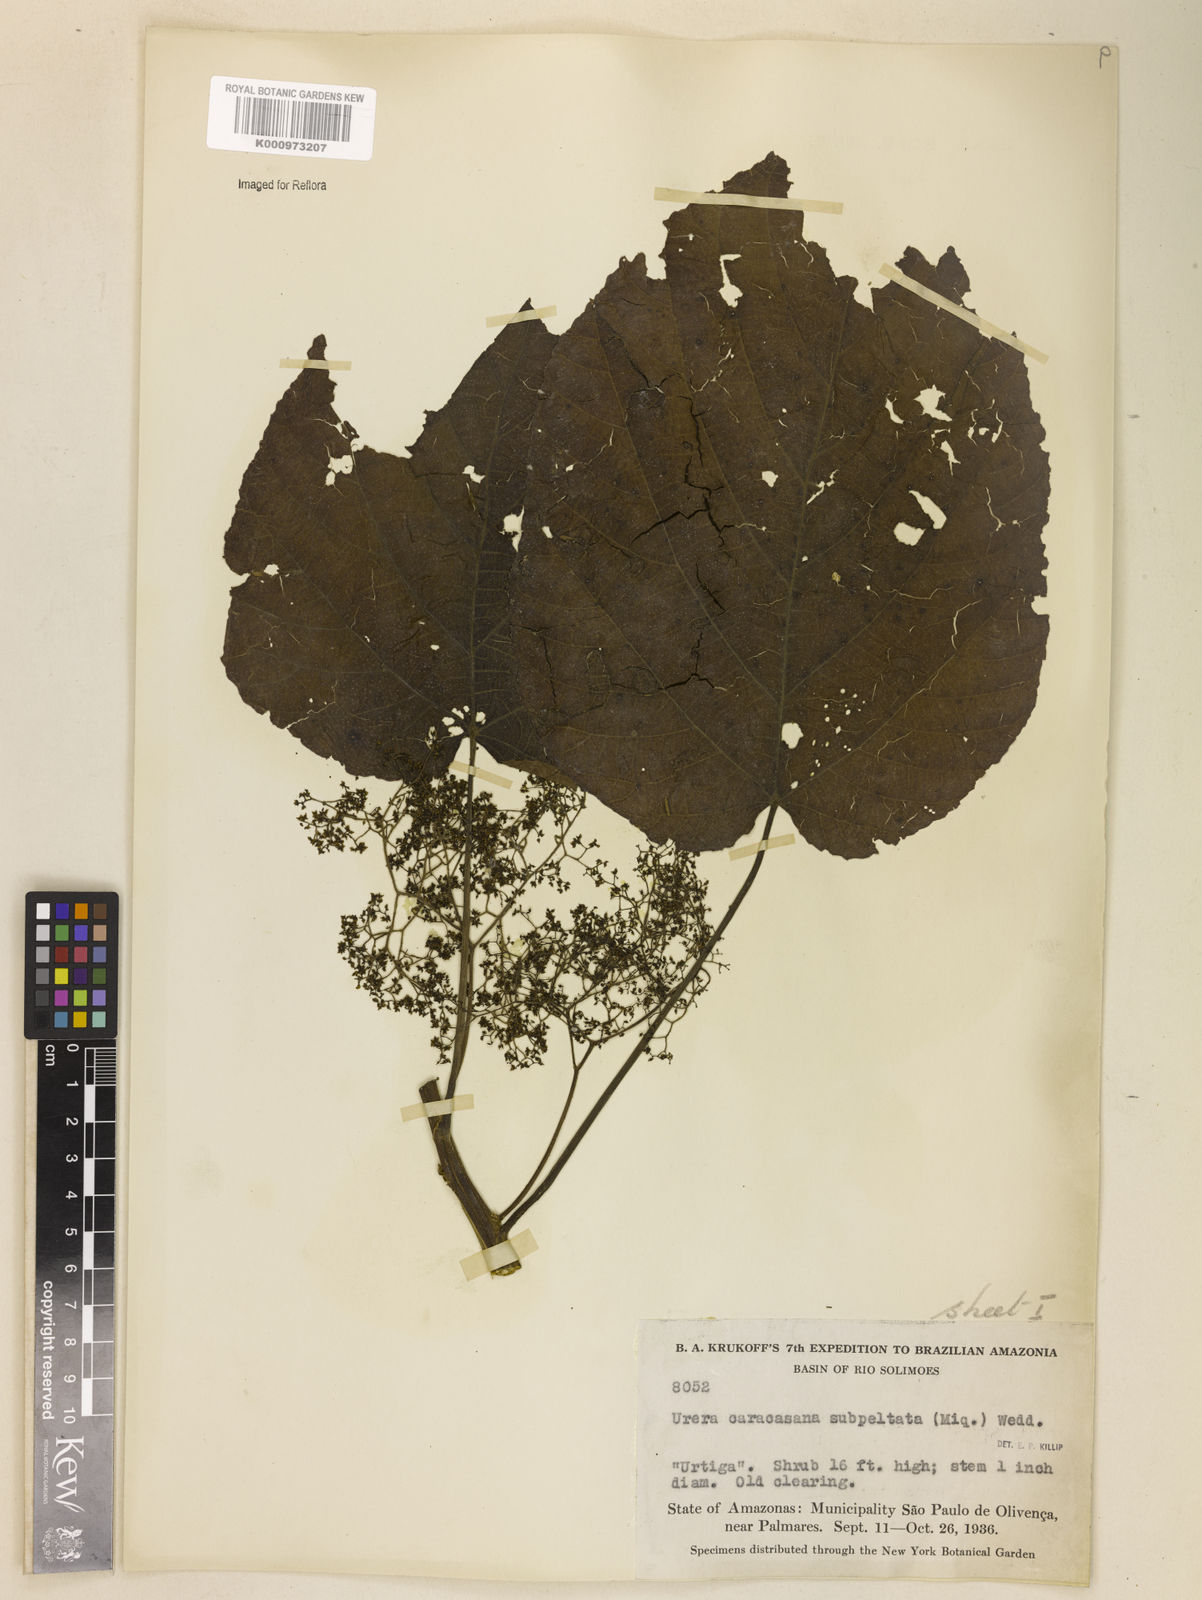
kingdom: Plantae
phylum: Tracheophyta
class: Magnoliopsida
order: Rosales
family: Urticaceae
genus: Urera
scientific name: Urera caracasana
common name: Flameberry
